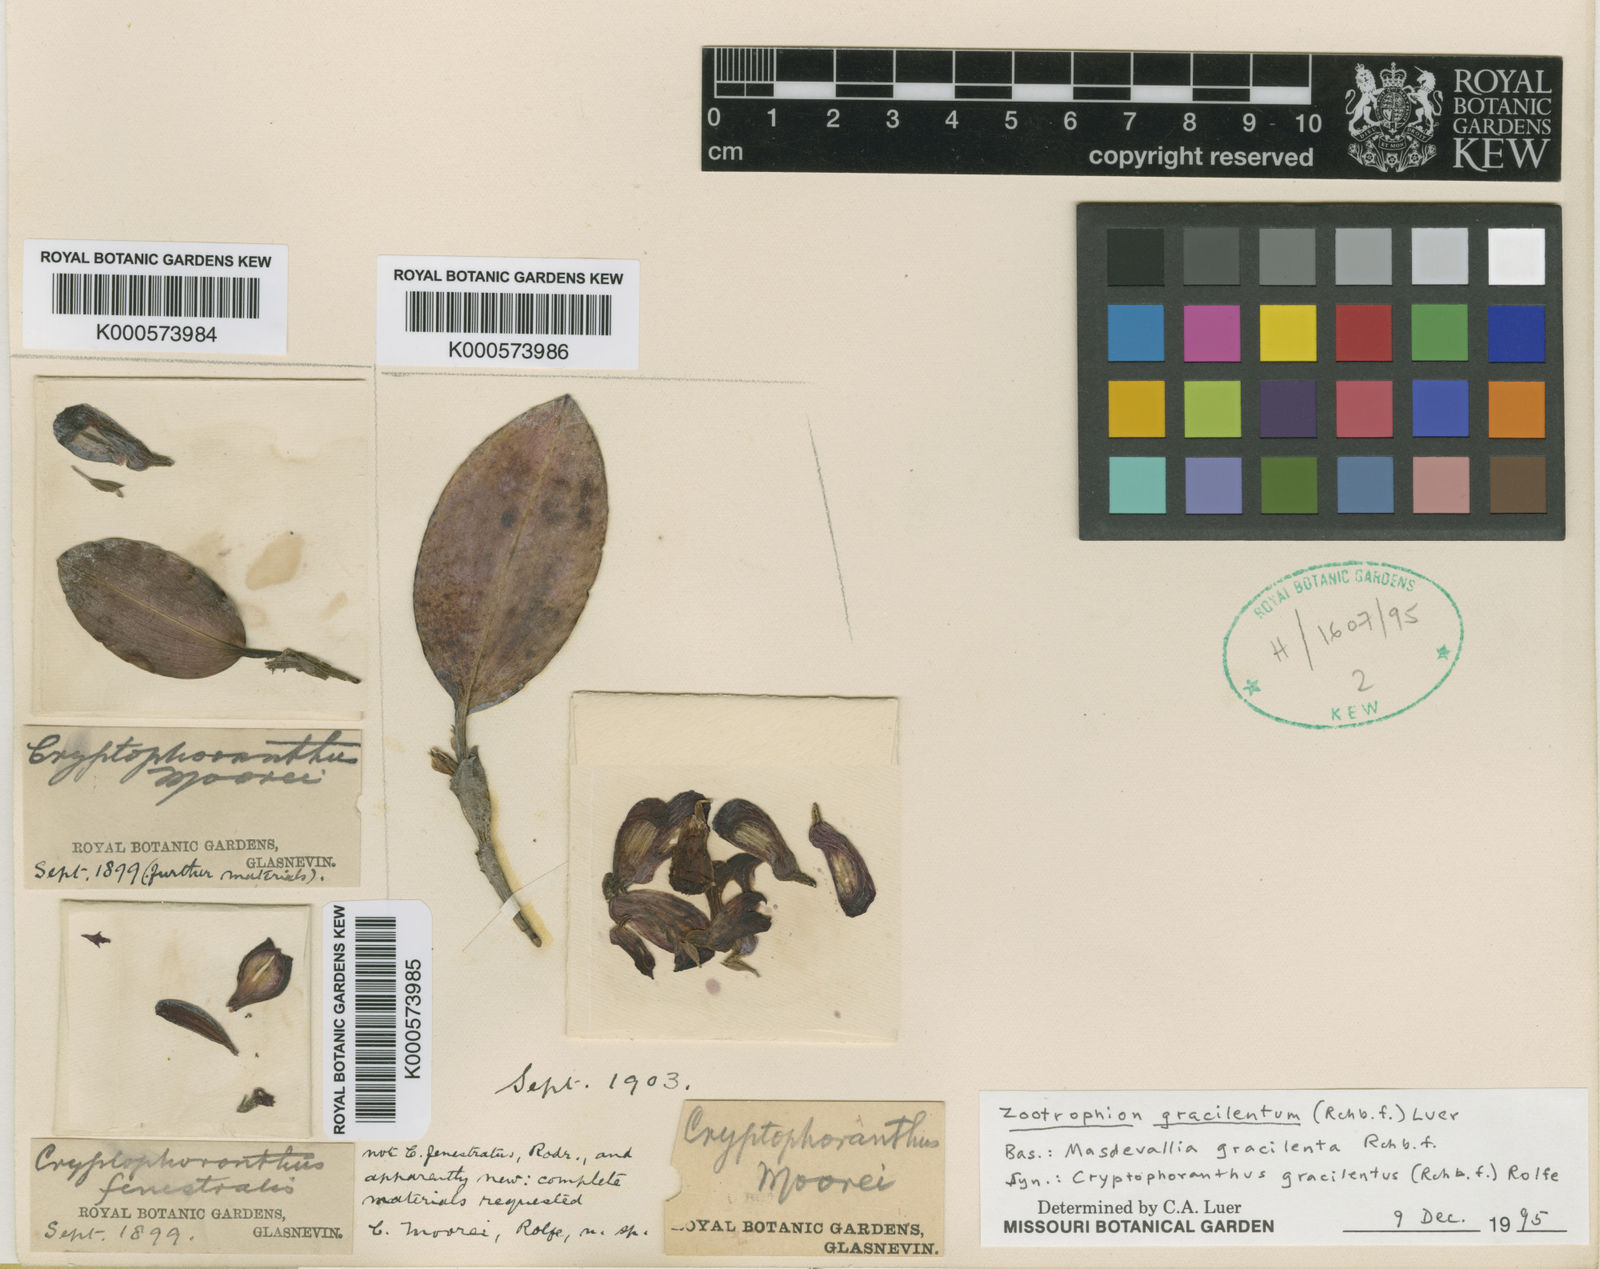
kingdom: Plantae
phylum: Tracheophyta
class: Liliopsida
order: Asparagales
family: Orchidaceae
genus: Zootrophion
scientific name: Zootrophion gracilentum
